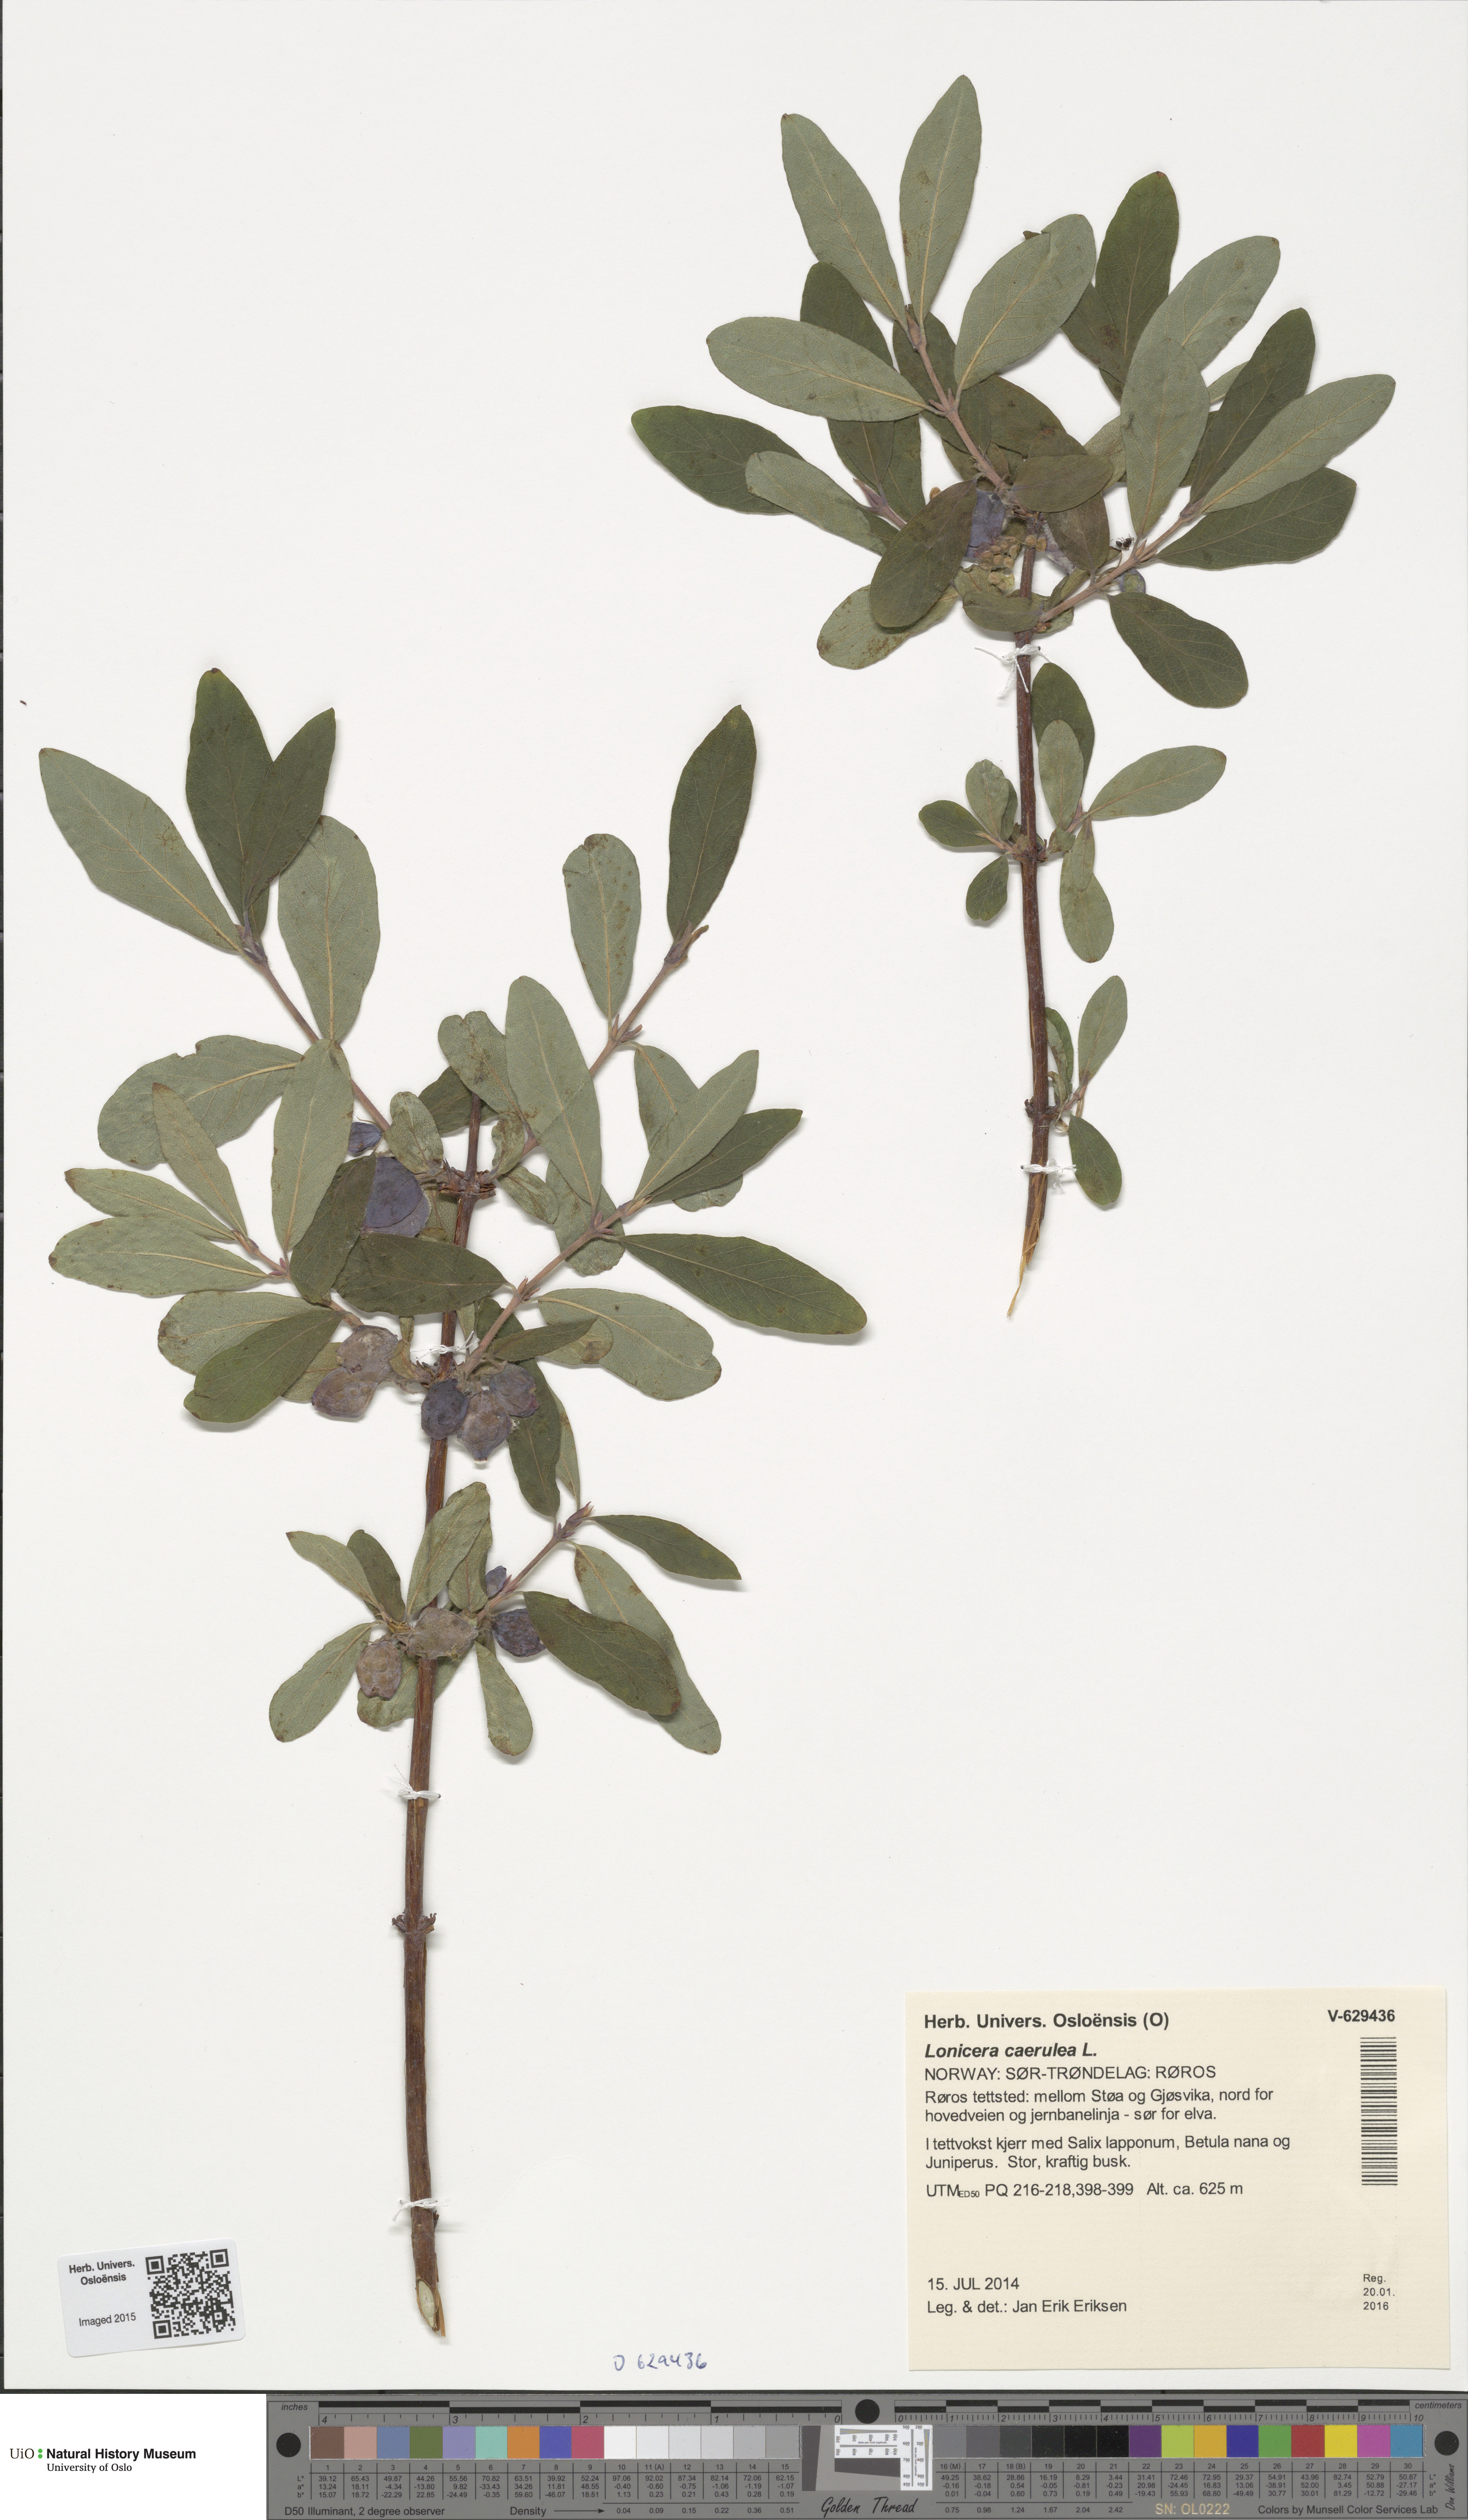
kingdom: Plantae
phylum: Tracheophyta
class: Magnoliopsida
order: Dipsacales
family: Caprifoliaceae
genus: Lonicera
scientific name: Lonicera caerulea
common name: Blue honeysuckle
